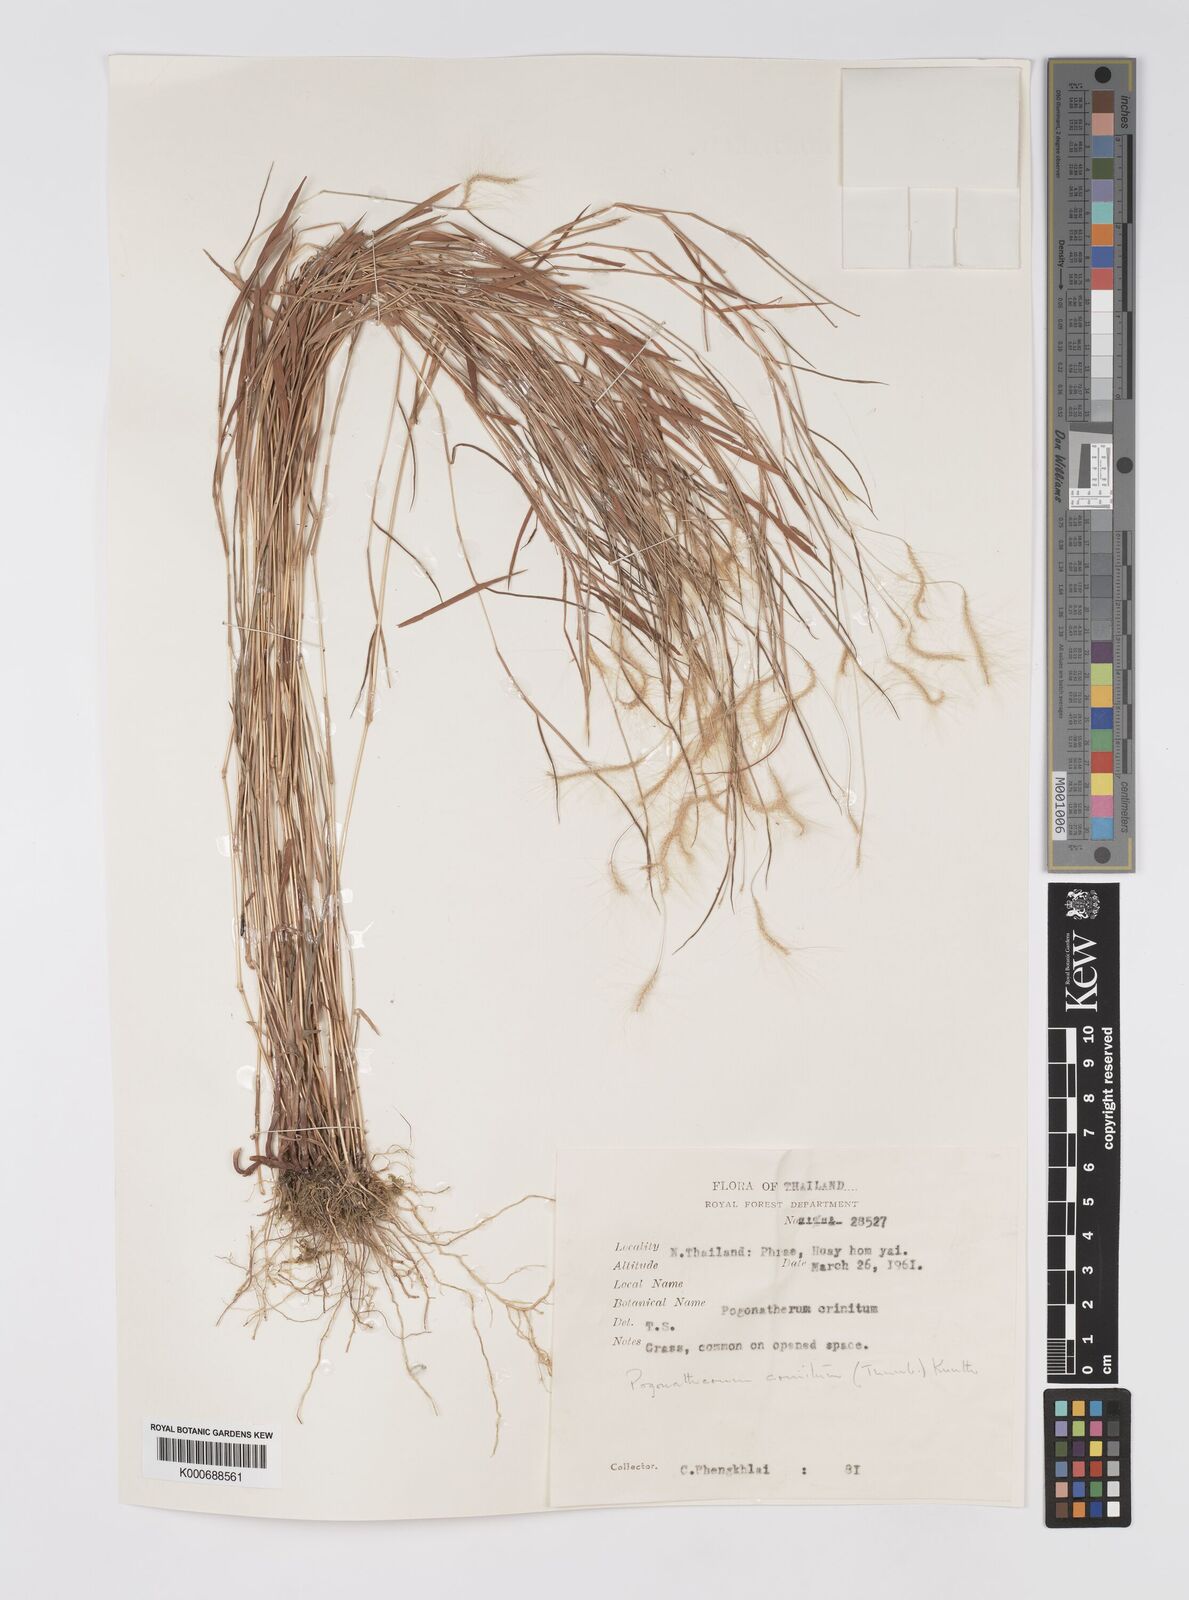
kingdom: Plantae
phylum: Tracheophyta
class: Liliopsida
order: Poales
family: Poaceae
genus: Pogonatherum
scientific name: Pogonatherum crinitum
